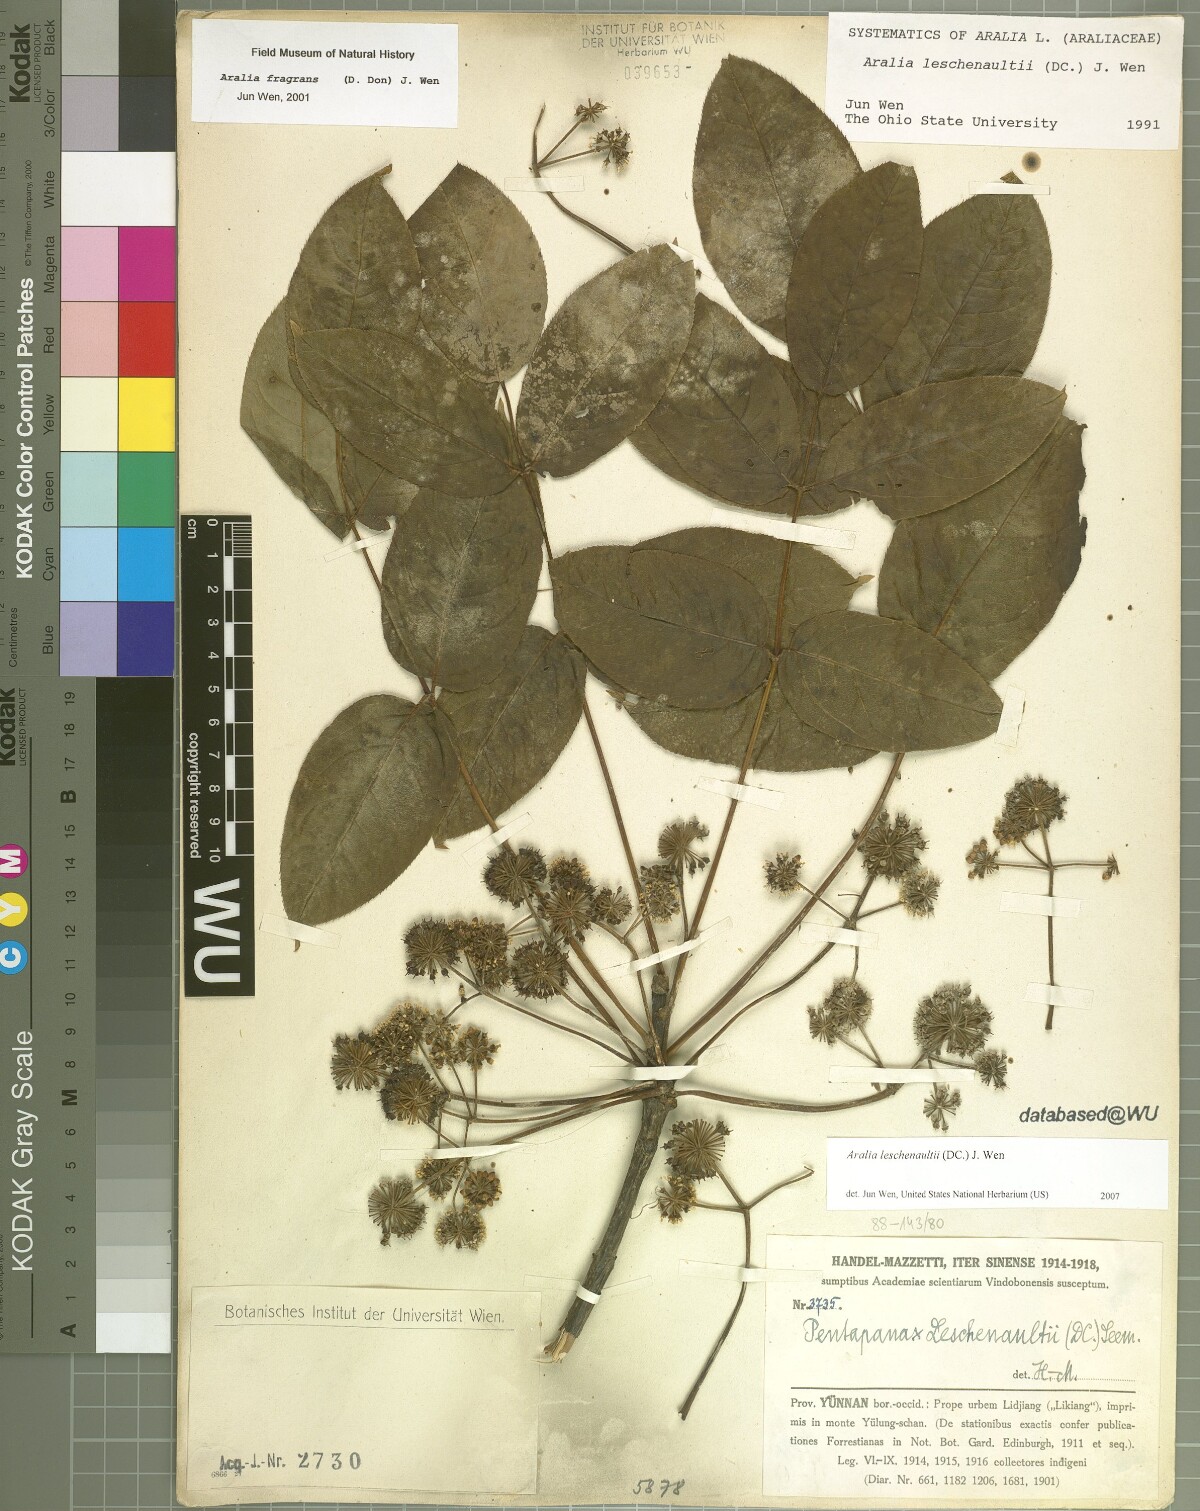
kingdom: Plantae
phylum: Tracheophyta
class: Magnoliopsida
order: Apiales
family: Araliaceae
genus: Aralia
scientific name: Aralia leschenaultii
